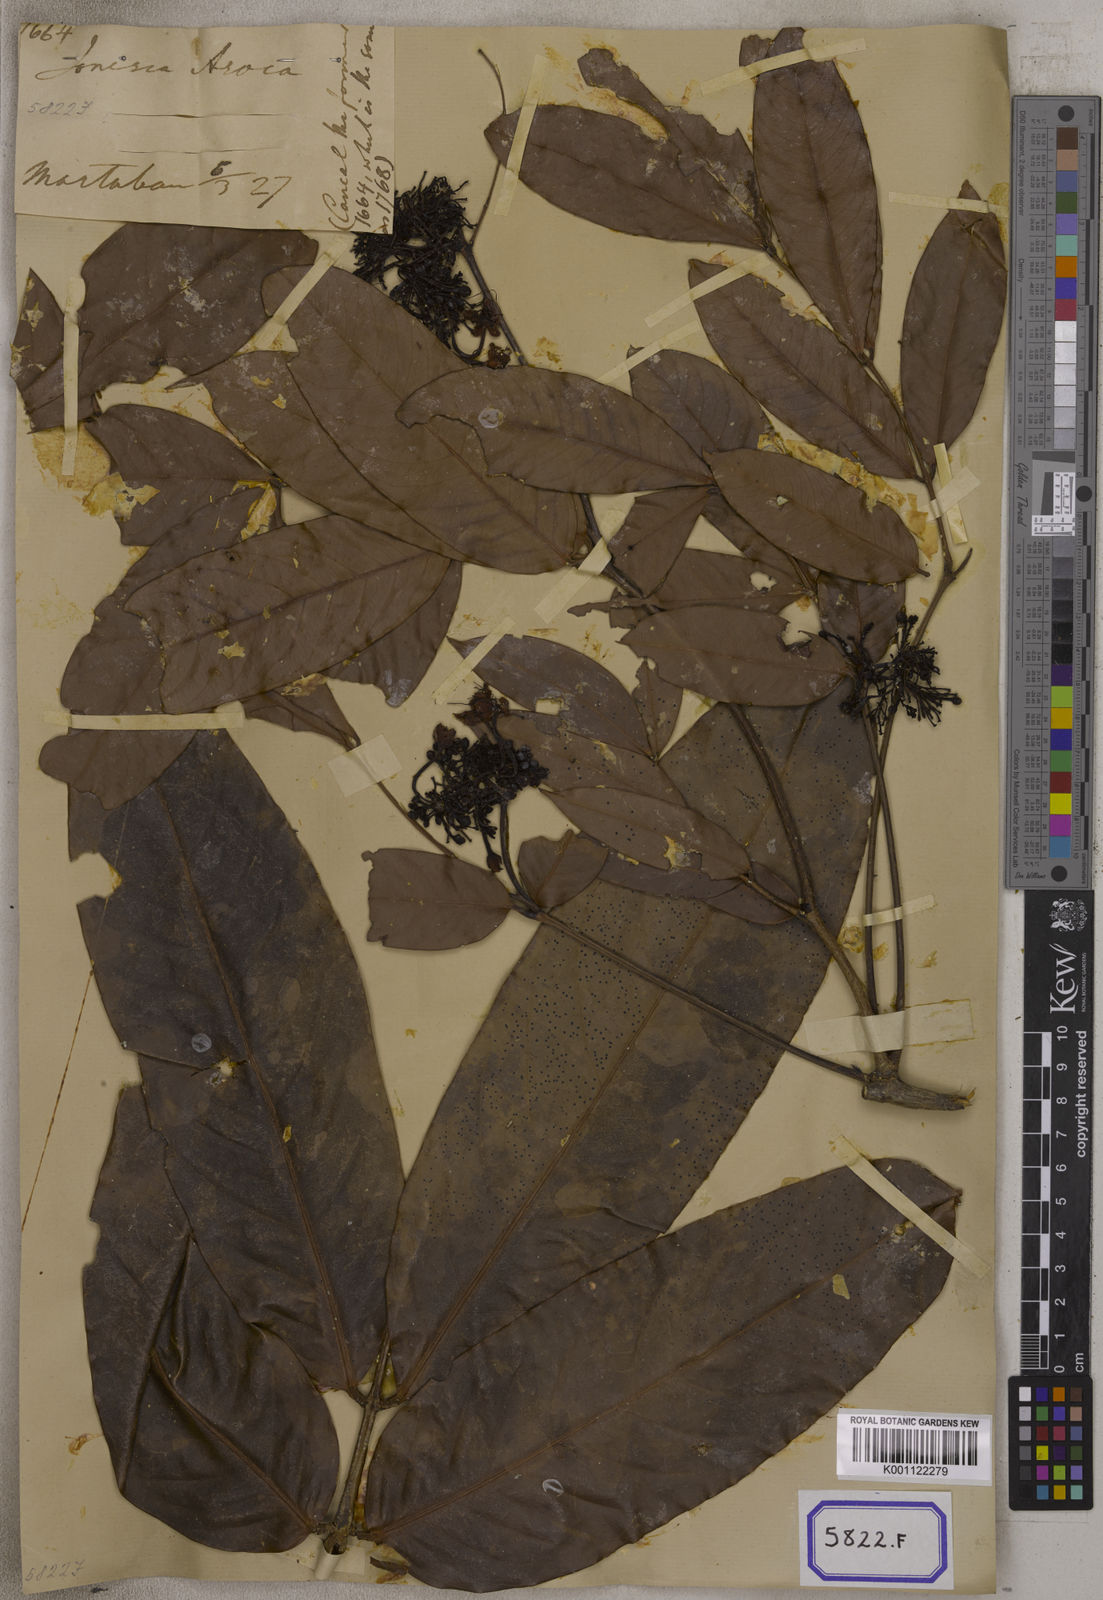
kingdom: Plantae
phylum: Tracheophyta
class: Magnoliopsida
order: Fabales
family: Fabaceae
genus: Saraca
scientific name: Saraca asoca
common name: Asoka-tree
